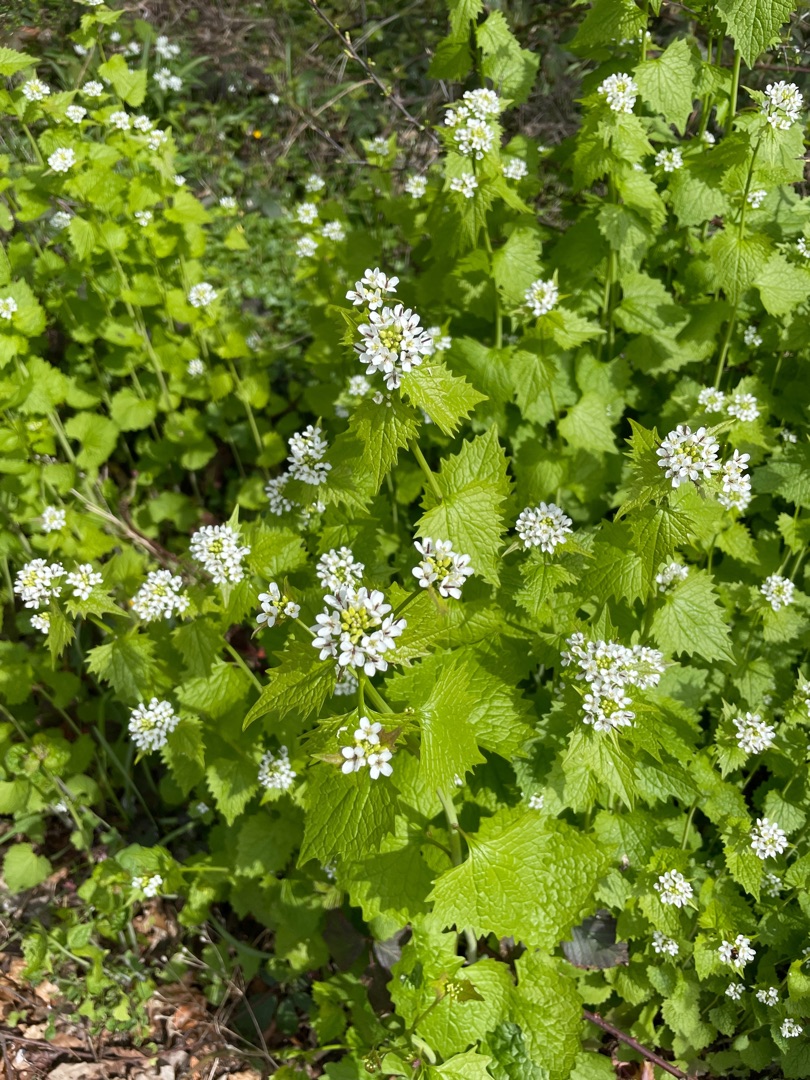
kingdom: Plantae
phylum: Tracheophyta
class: Magnoliopsida
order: Brassicales
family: Brassicaceae
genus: Alliaria
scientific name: Alliaria petiolata
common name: Løgkarse
